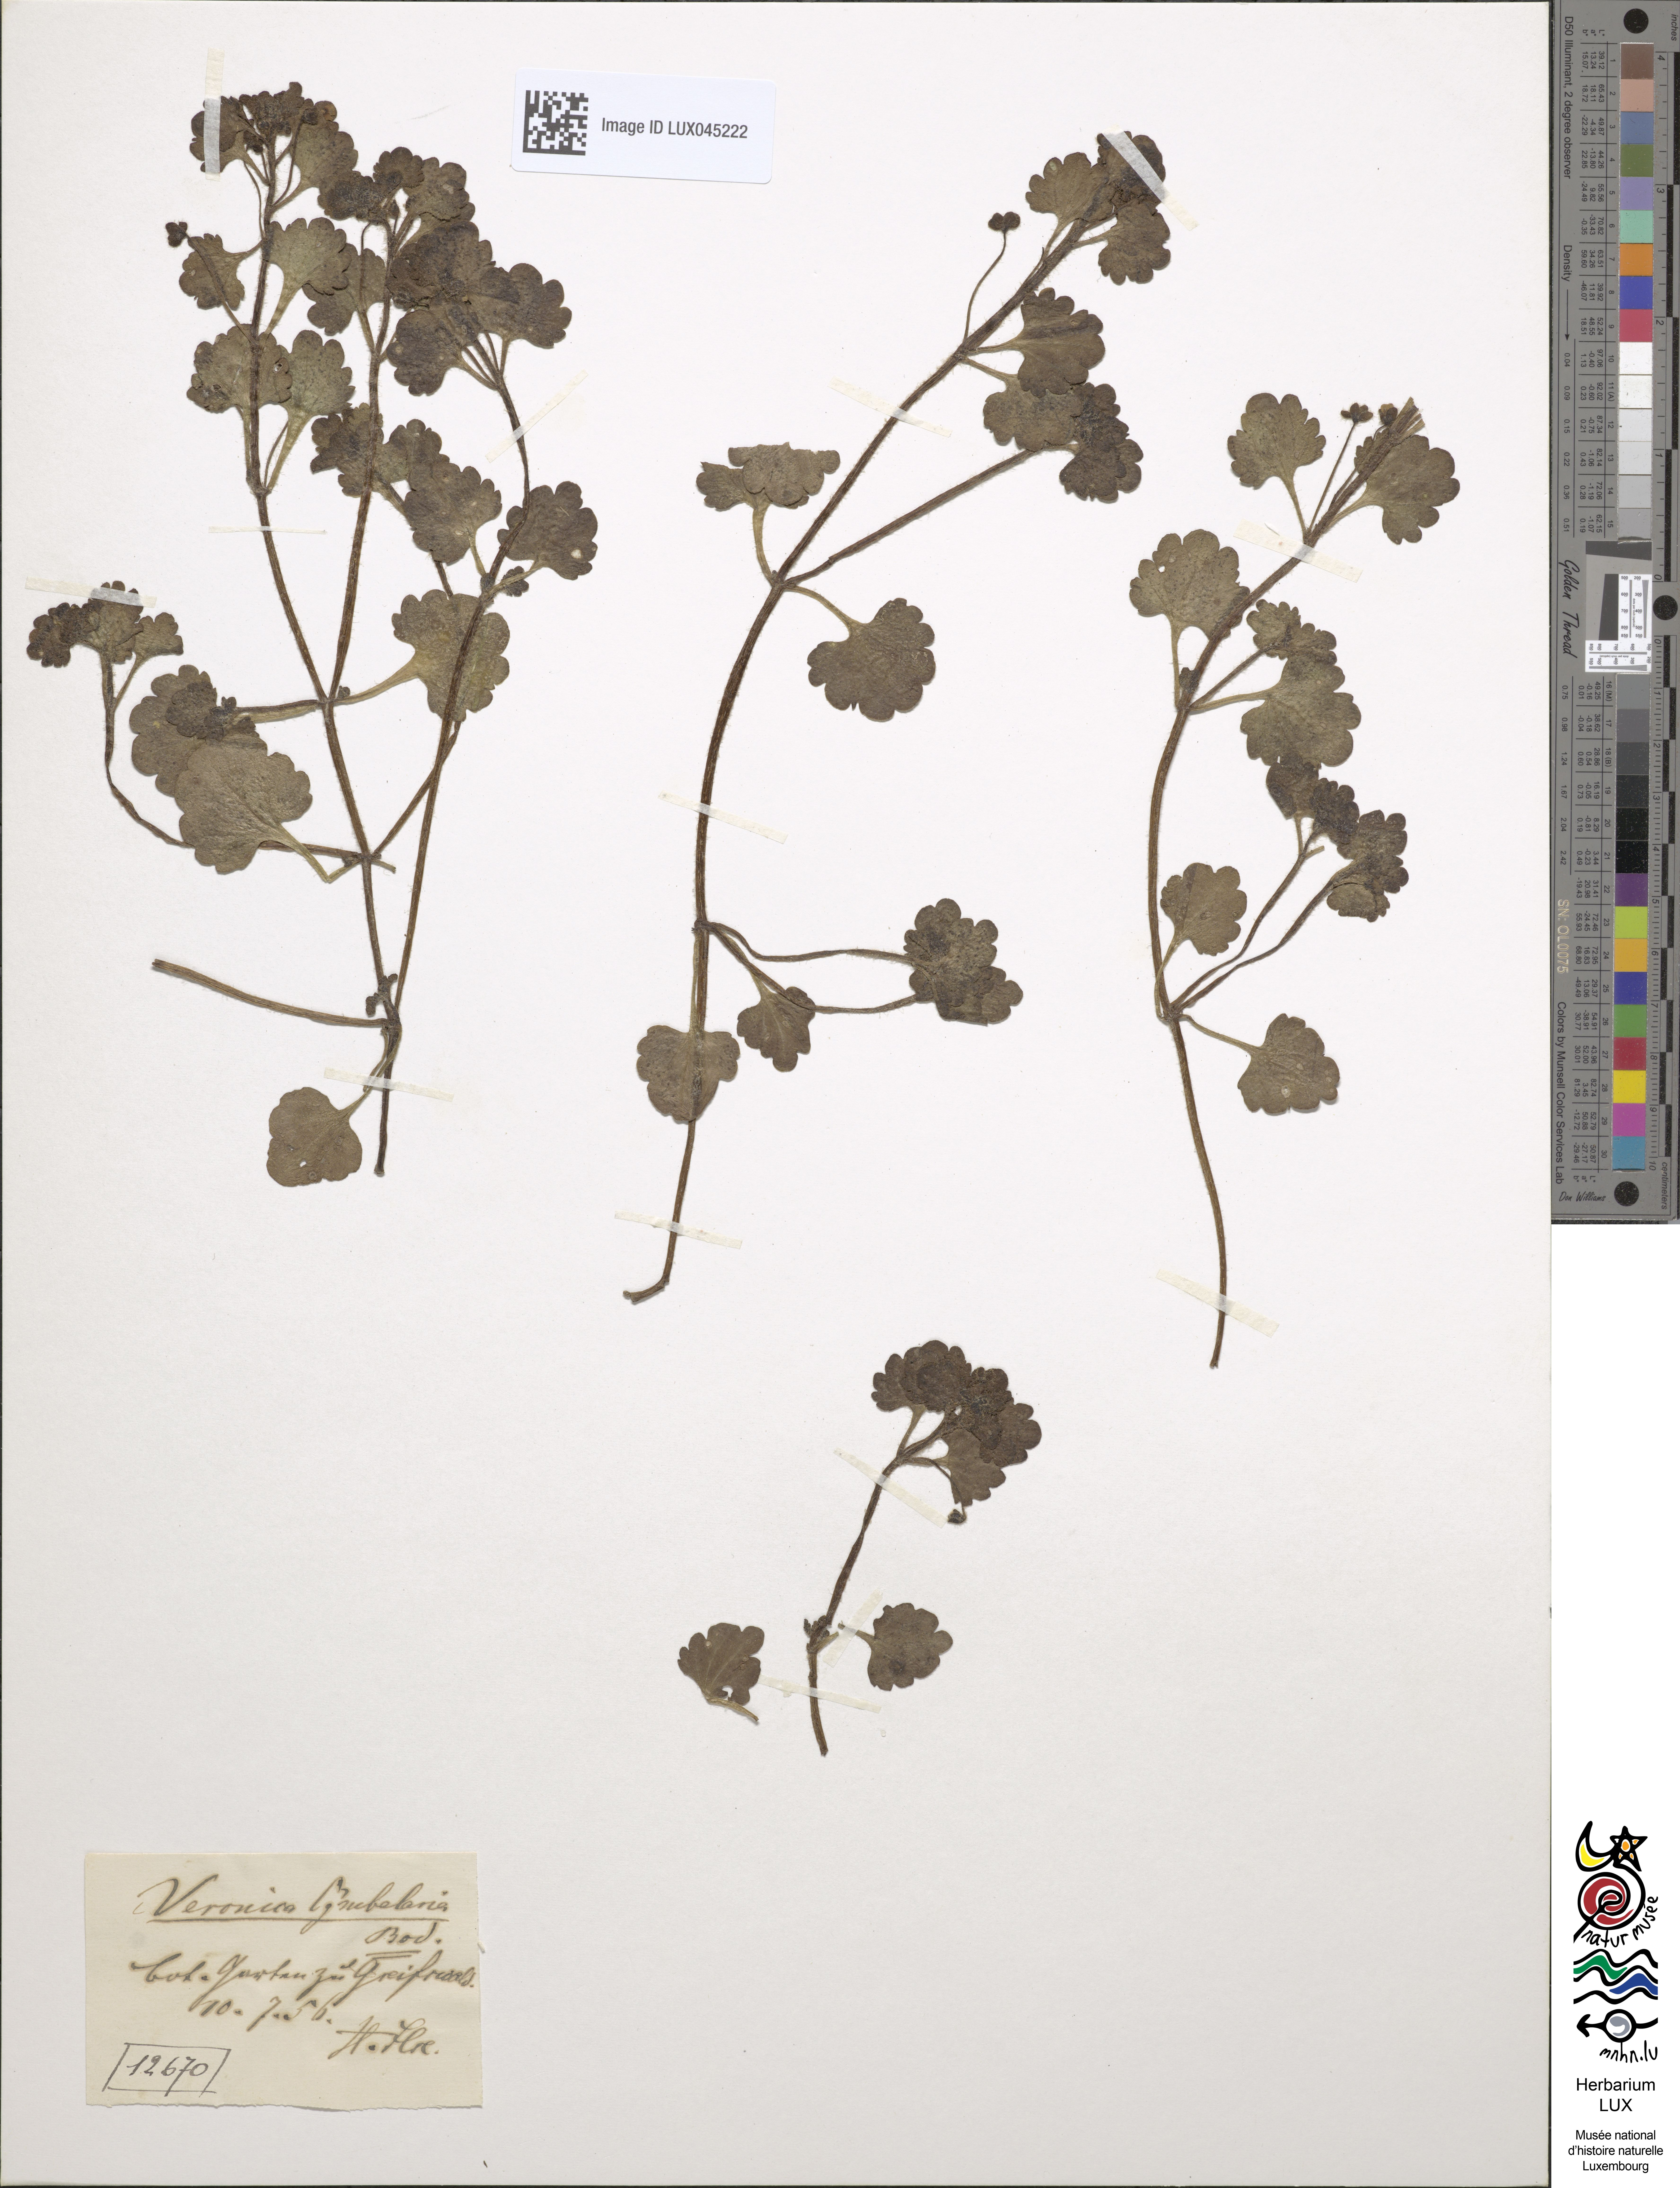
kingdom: Plantae
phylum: Tracheophyta
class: Magnoliopsida
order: Lamiales
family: Plantaginaceae
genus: Veronica
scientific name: Veronica cymbalaria
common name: Pale speedwell
